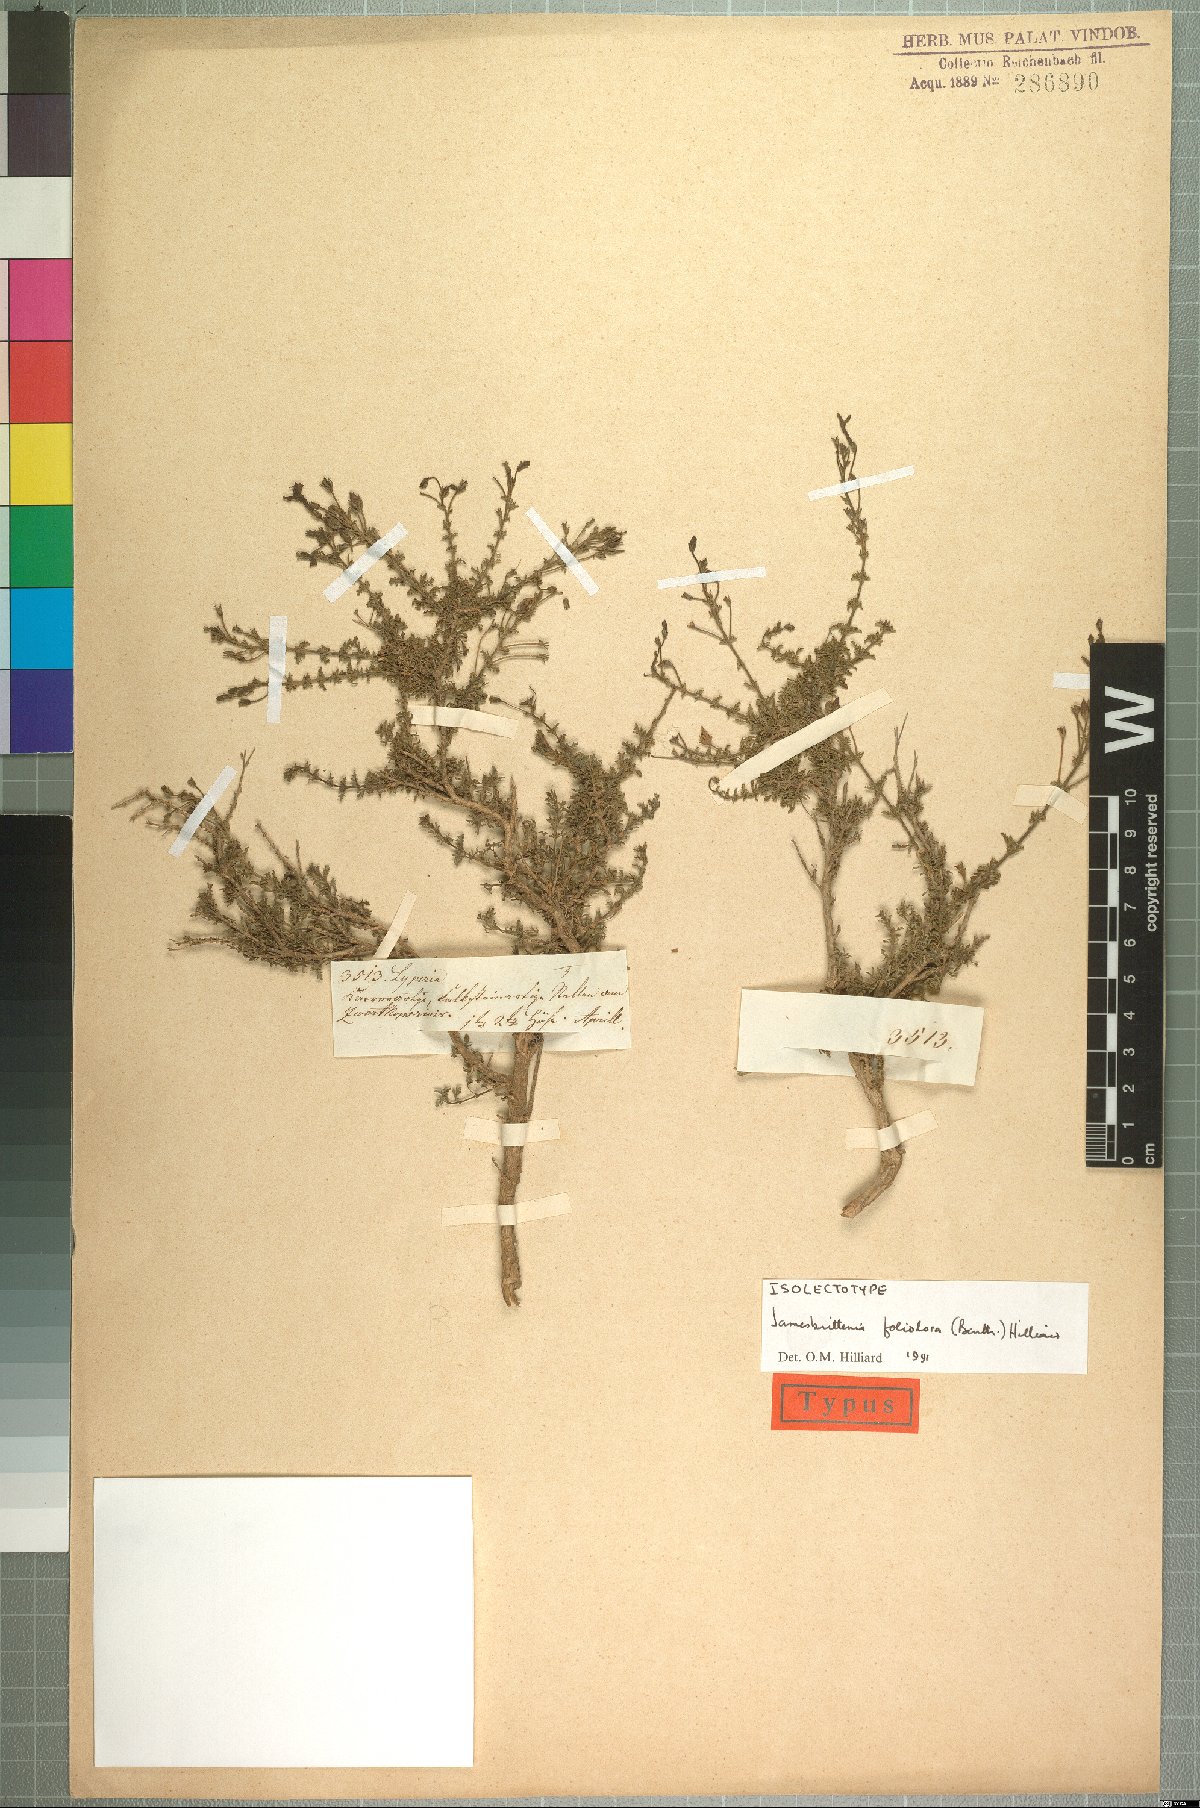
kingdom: Plantae
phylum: Tracheophyta
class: Magnoliopsida
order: Lamiales
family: Scrophulariaceae
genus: Jamesbrittenia
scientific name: Jamesbrittenia foliolosa
